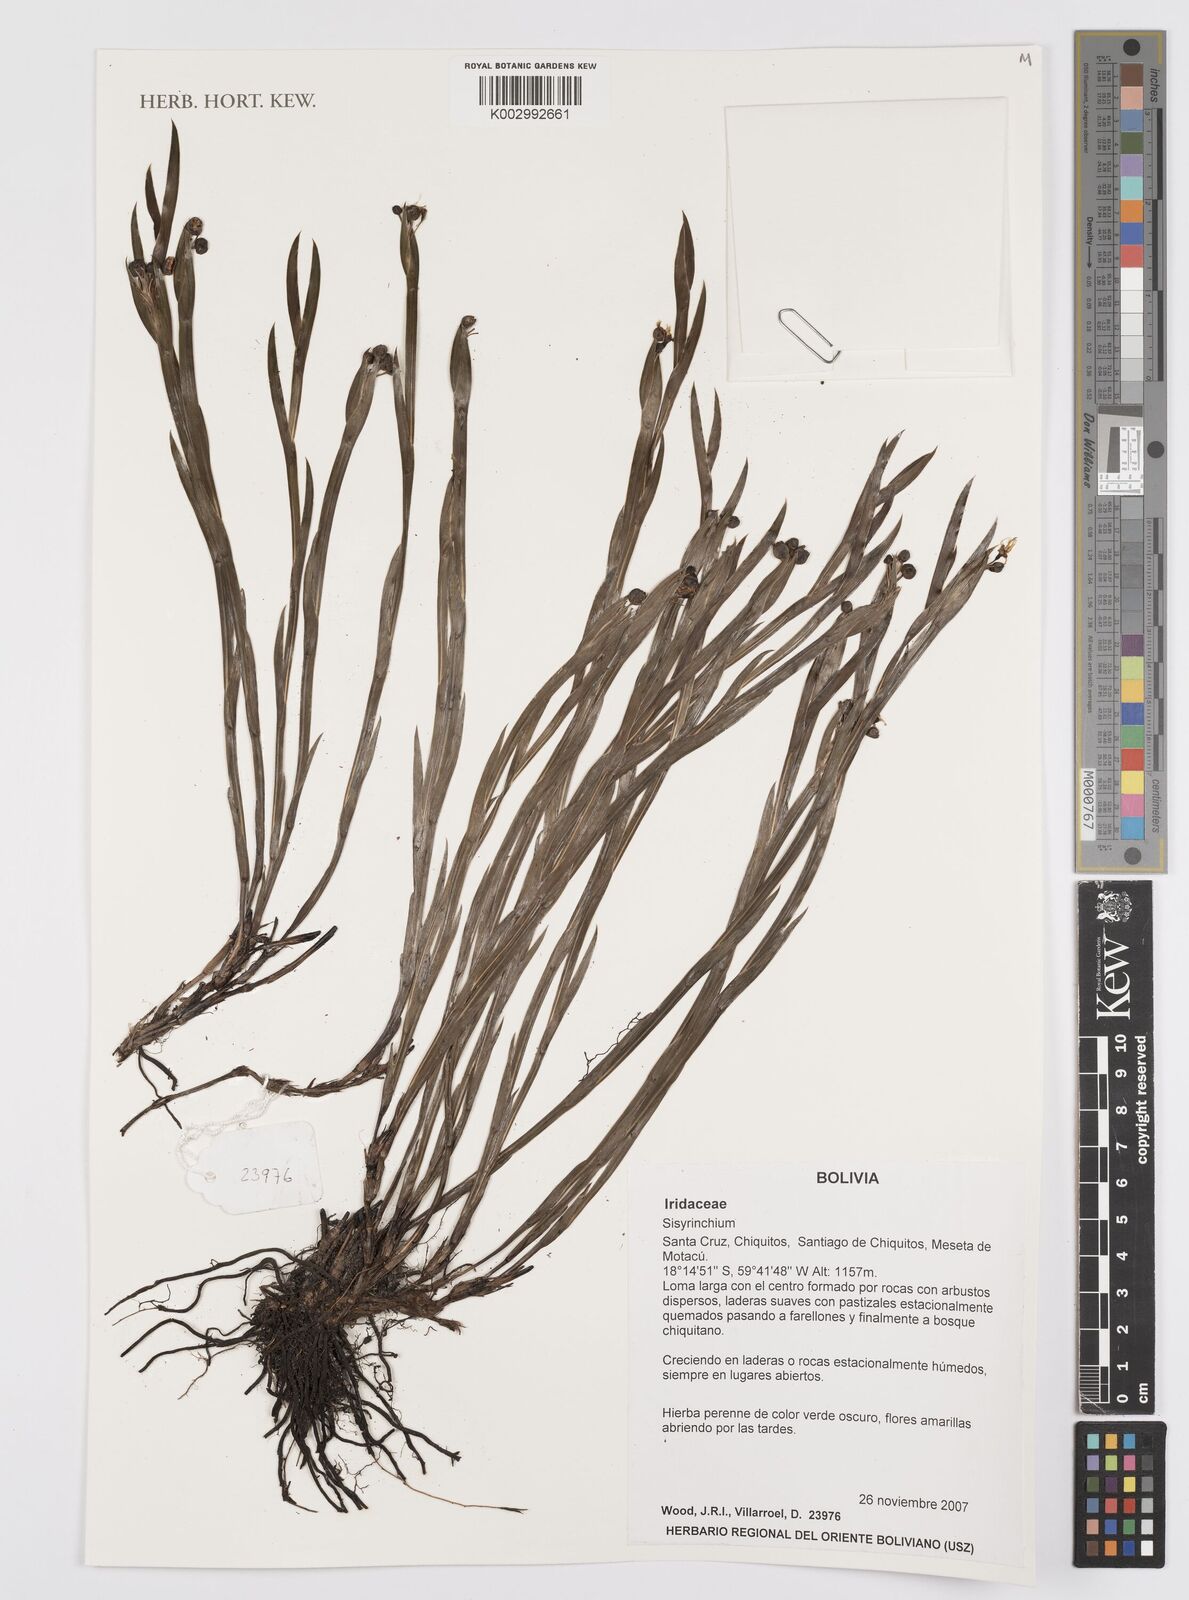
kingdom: Plantae
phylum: Tracheophyta
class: Liliopsida
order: Asparagales
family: Iridaceae
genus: Sisyrinchium
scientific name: Sisyrinchium
